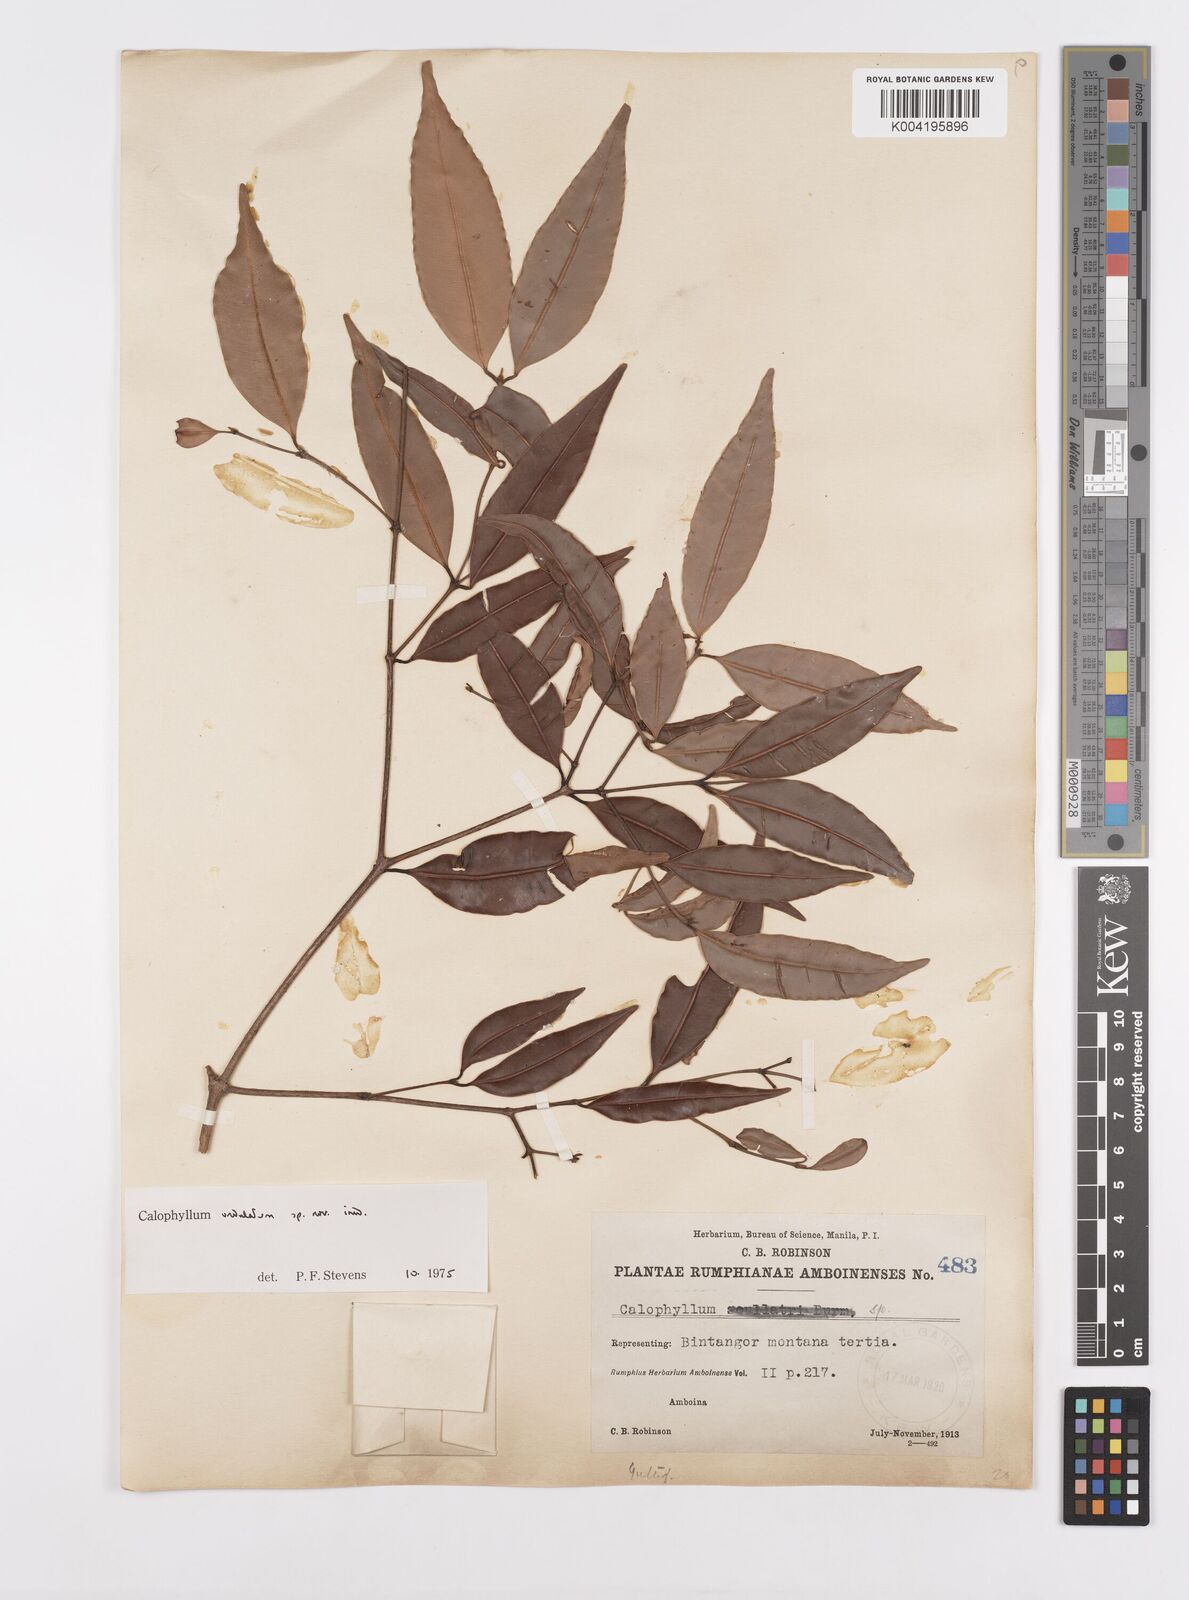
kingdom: Plantae
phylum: Tracheophyta
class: Magnoliopsida
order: Malpighiales
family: Calophyllaceae
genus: Calophyllum
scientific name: Calophyllum undulatum
